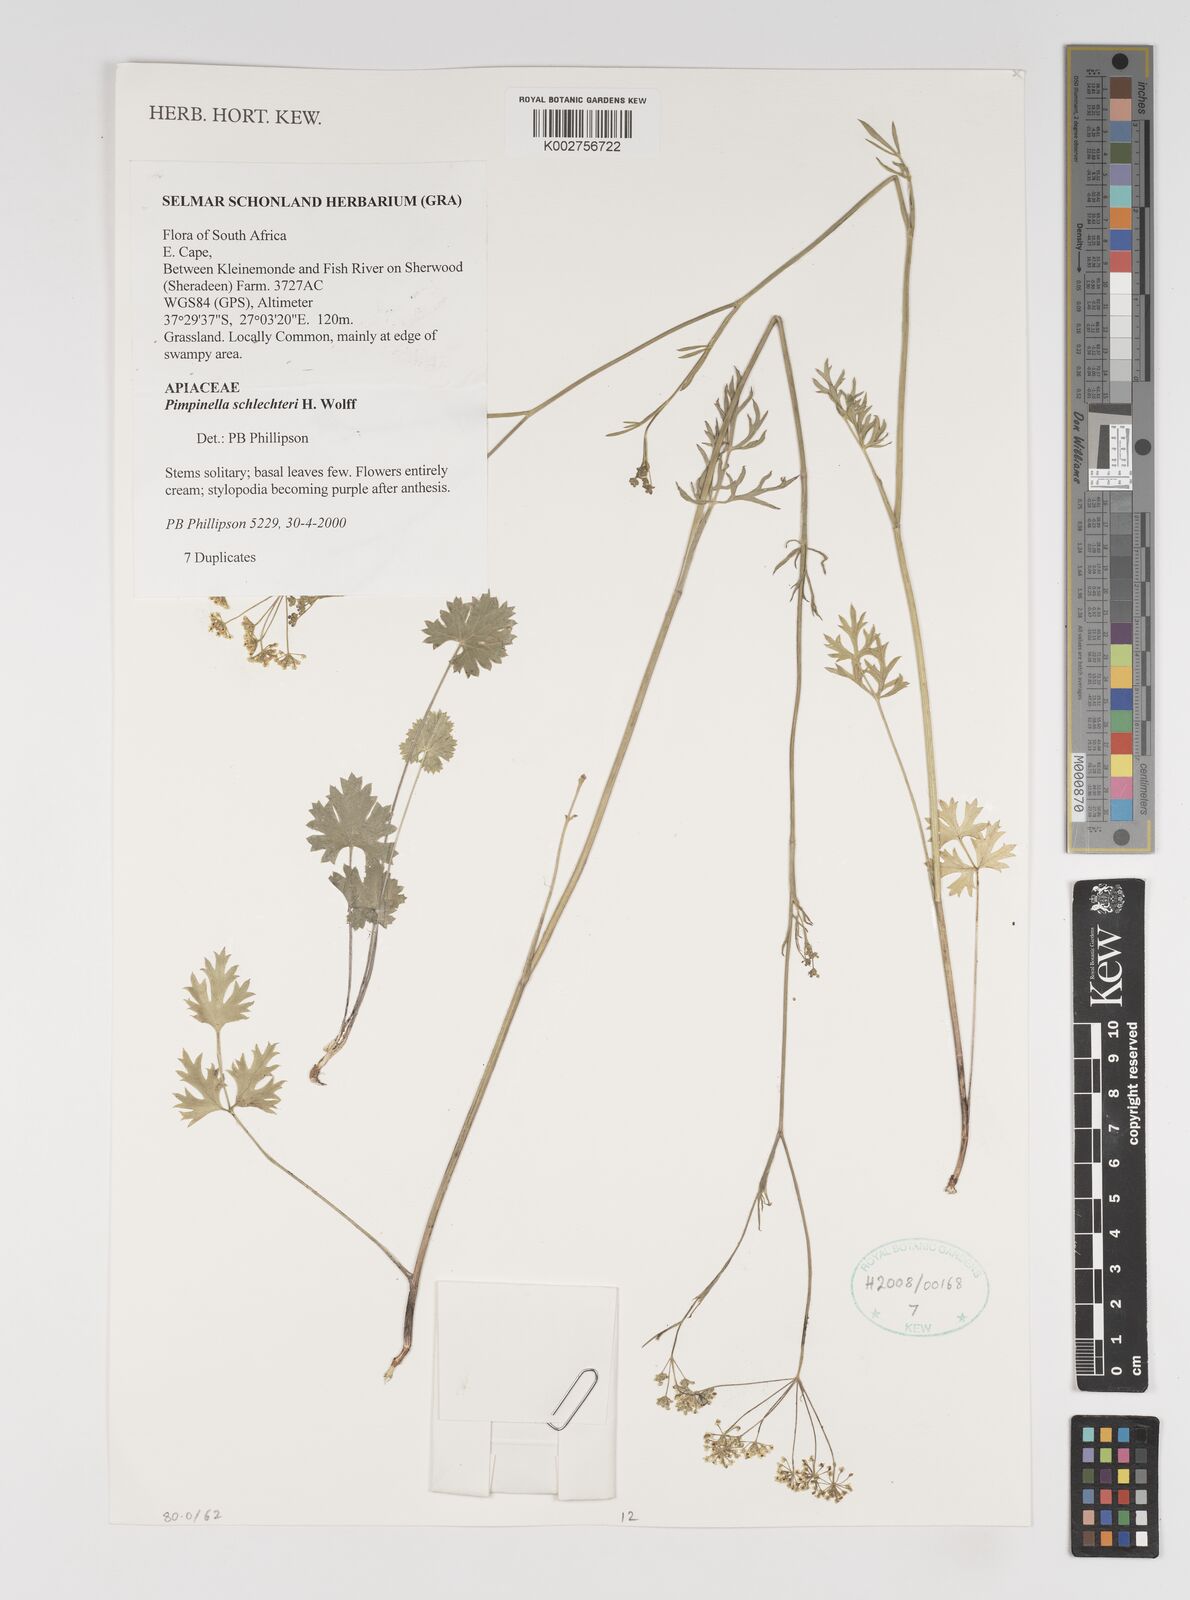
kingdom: Plantae
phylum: Tracheophyta
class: Magnoliopsida
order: Apiales
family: Apiaceae
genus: Pimpinella
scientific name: Pimpinella caffra
